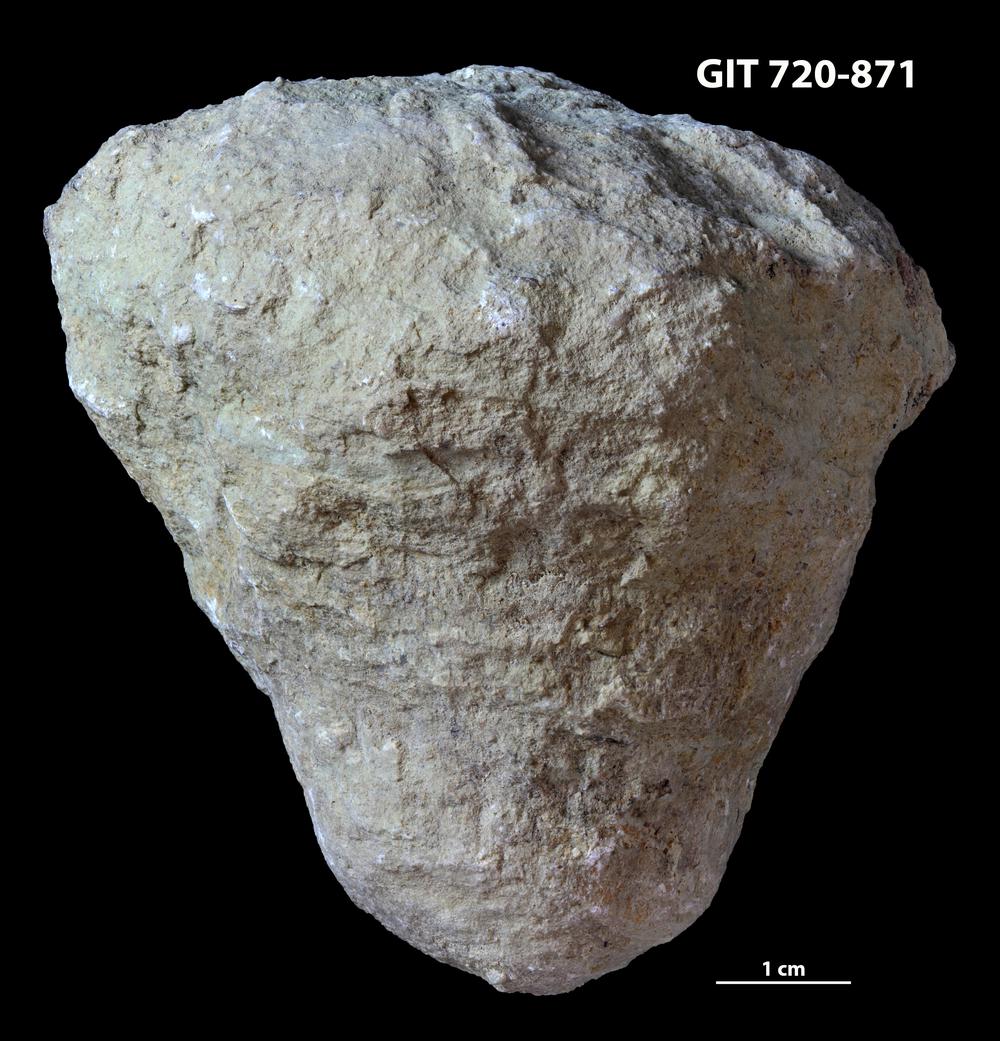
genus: Conichnus
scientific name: Conichnus
